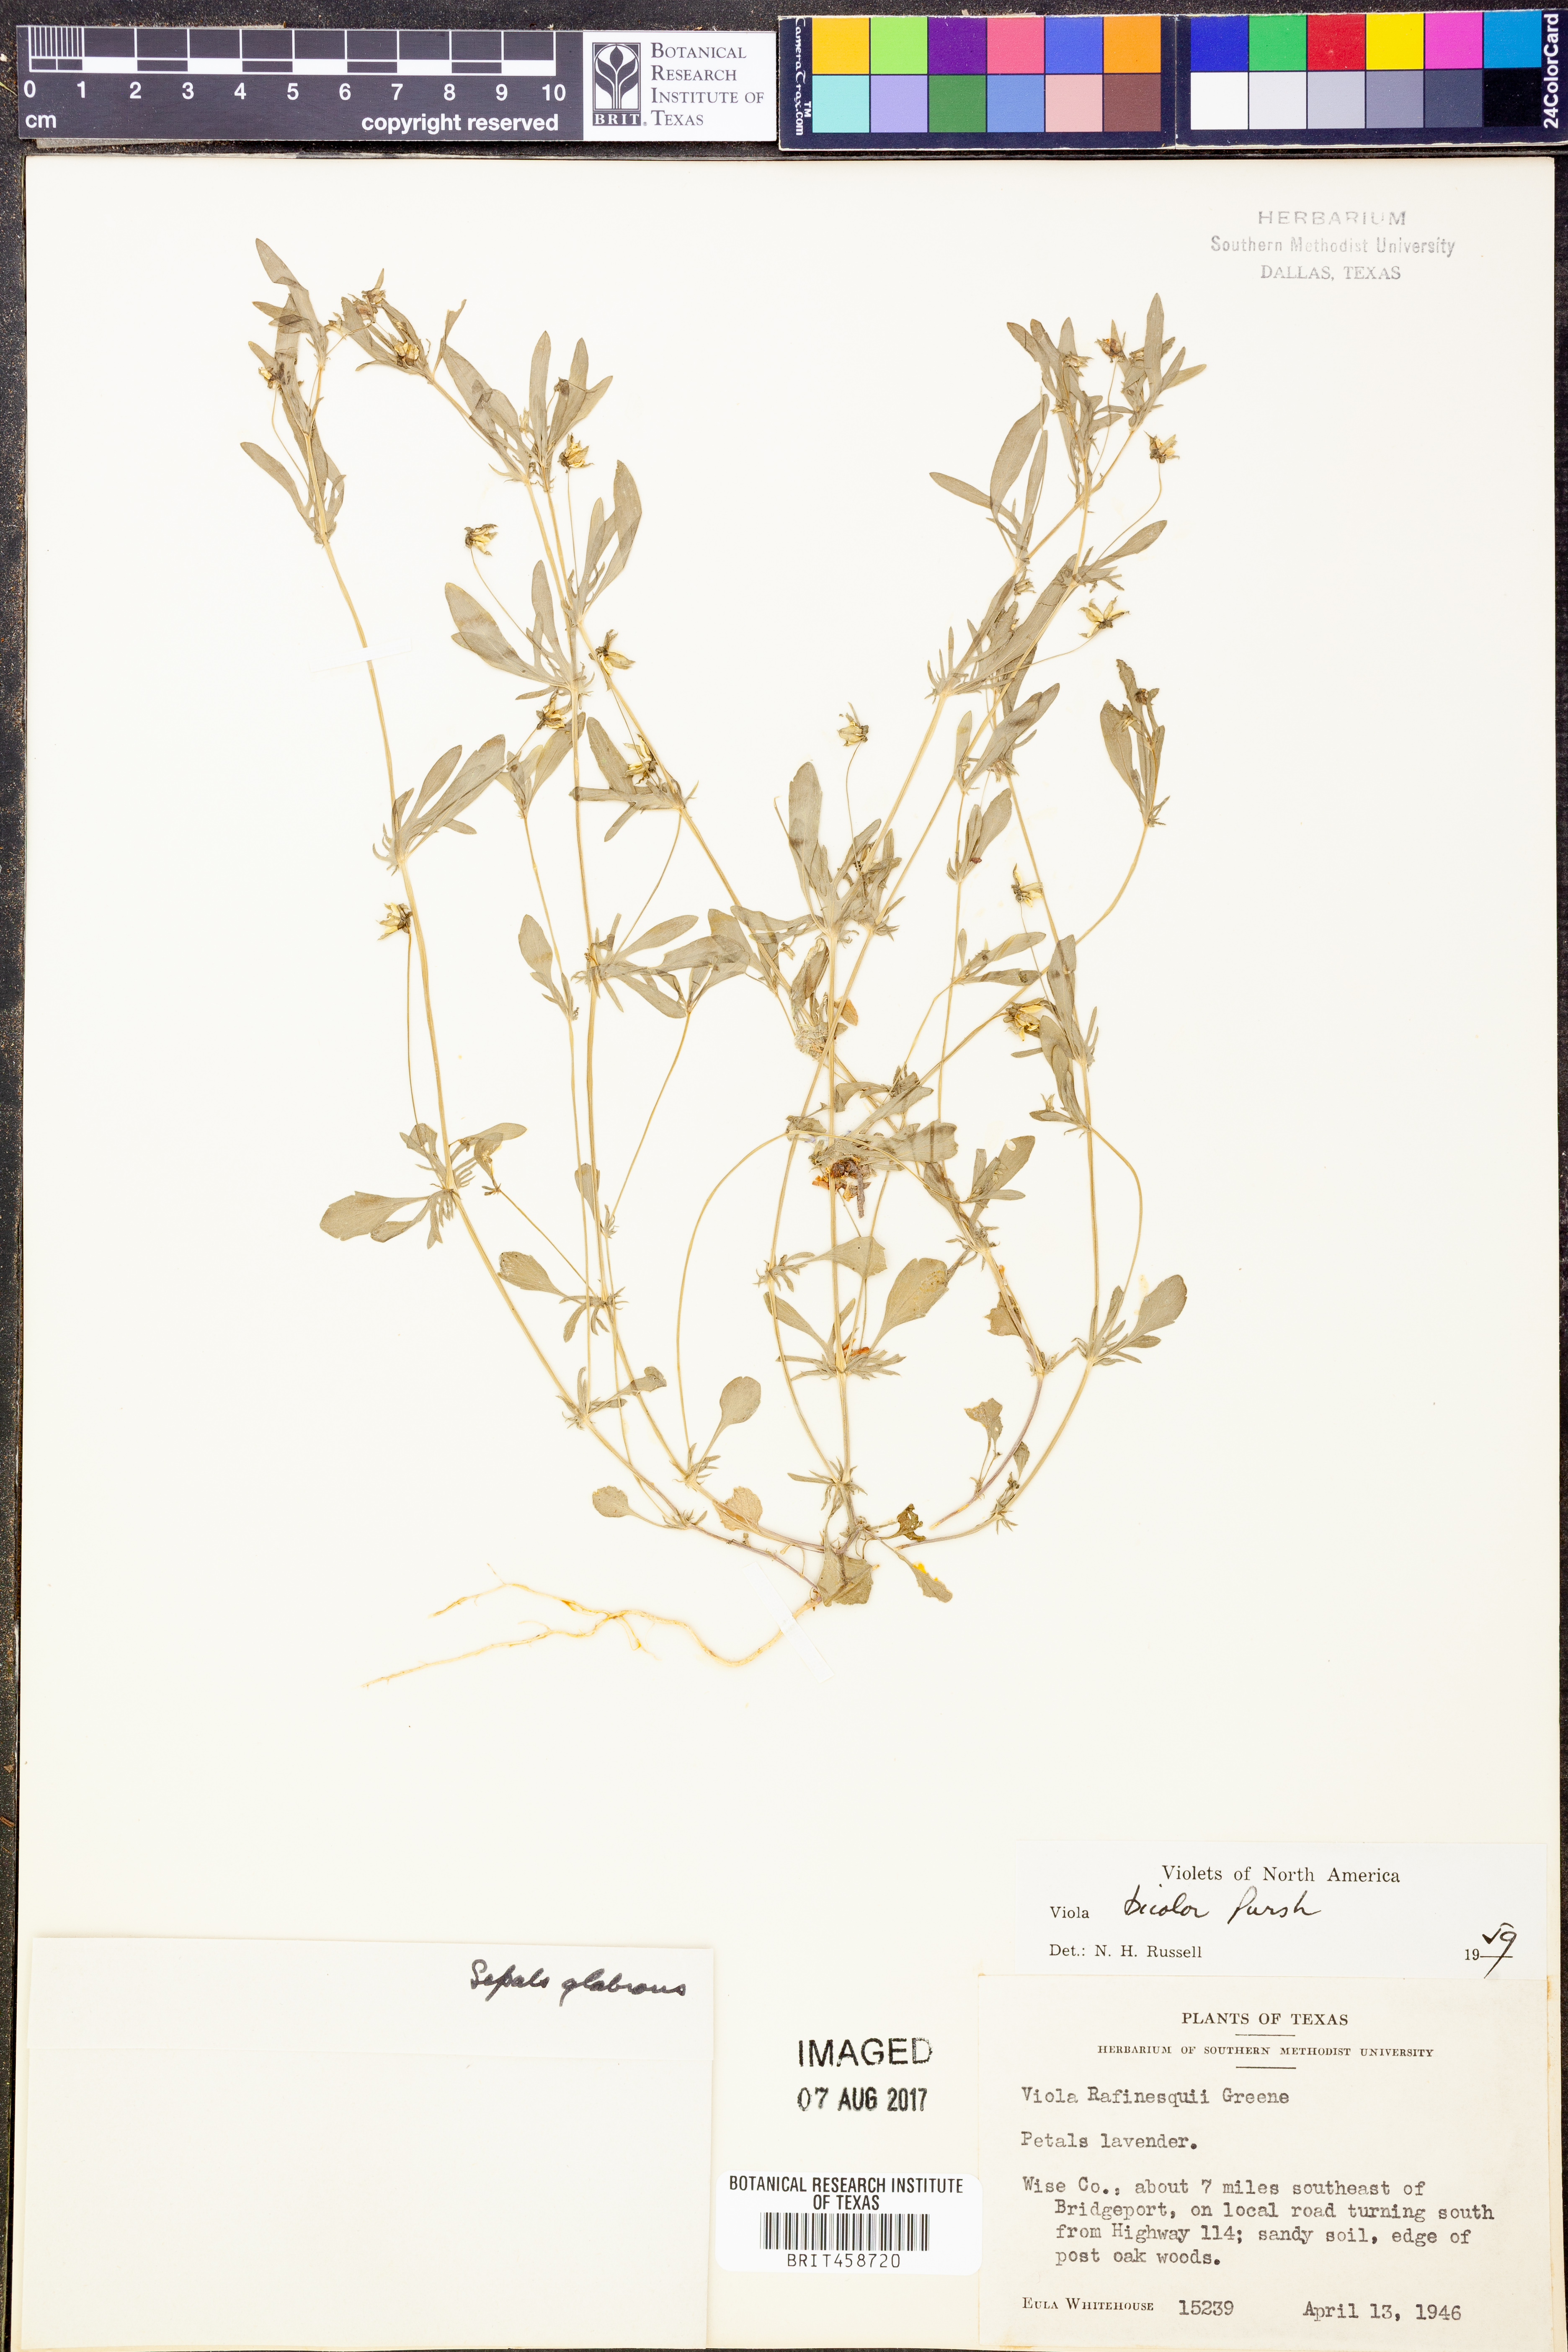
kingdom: Plantae
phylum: Tracheophyta
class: Magnoliopsida
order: Malpighiales
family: Violaceae
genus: Viola
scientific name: Viola rafinesquei
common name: American field pansy
